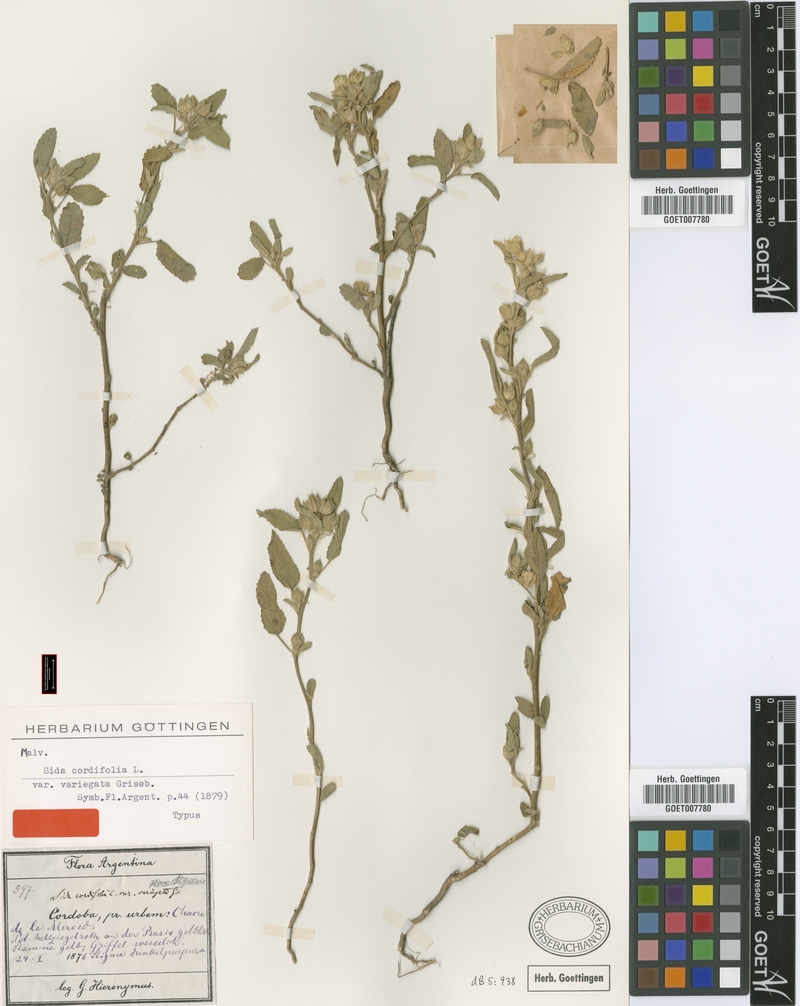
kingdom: Plantae
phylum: Tracheophyta
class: Magnoliopsida
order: Malvales
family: Malvaceae
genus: Sida
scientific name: Sida variegata
